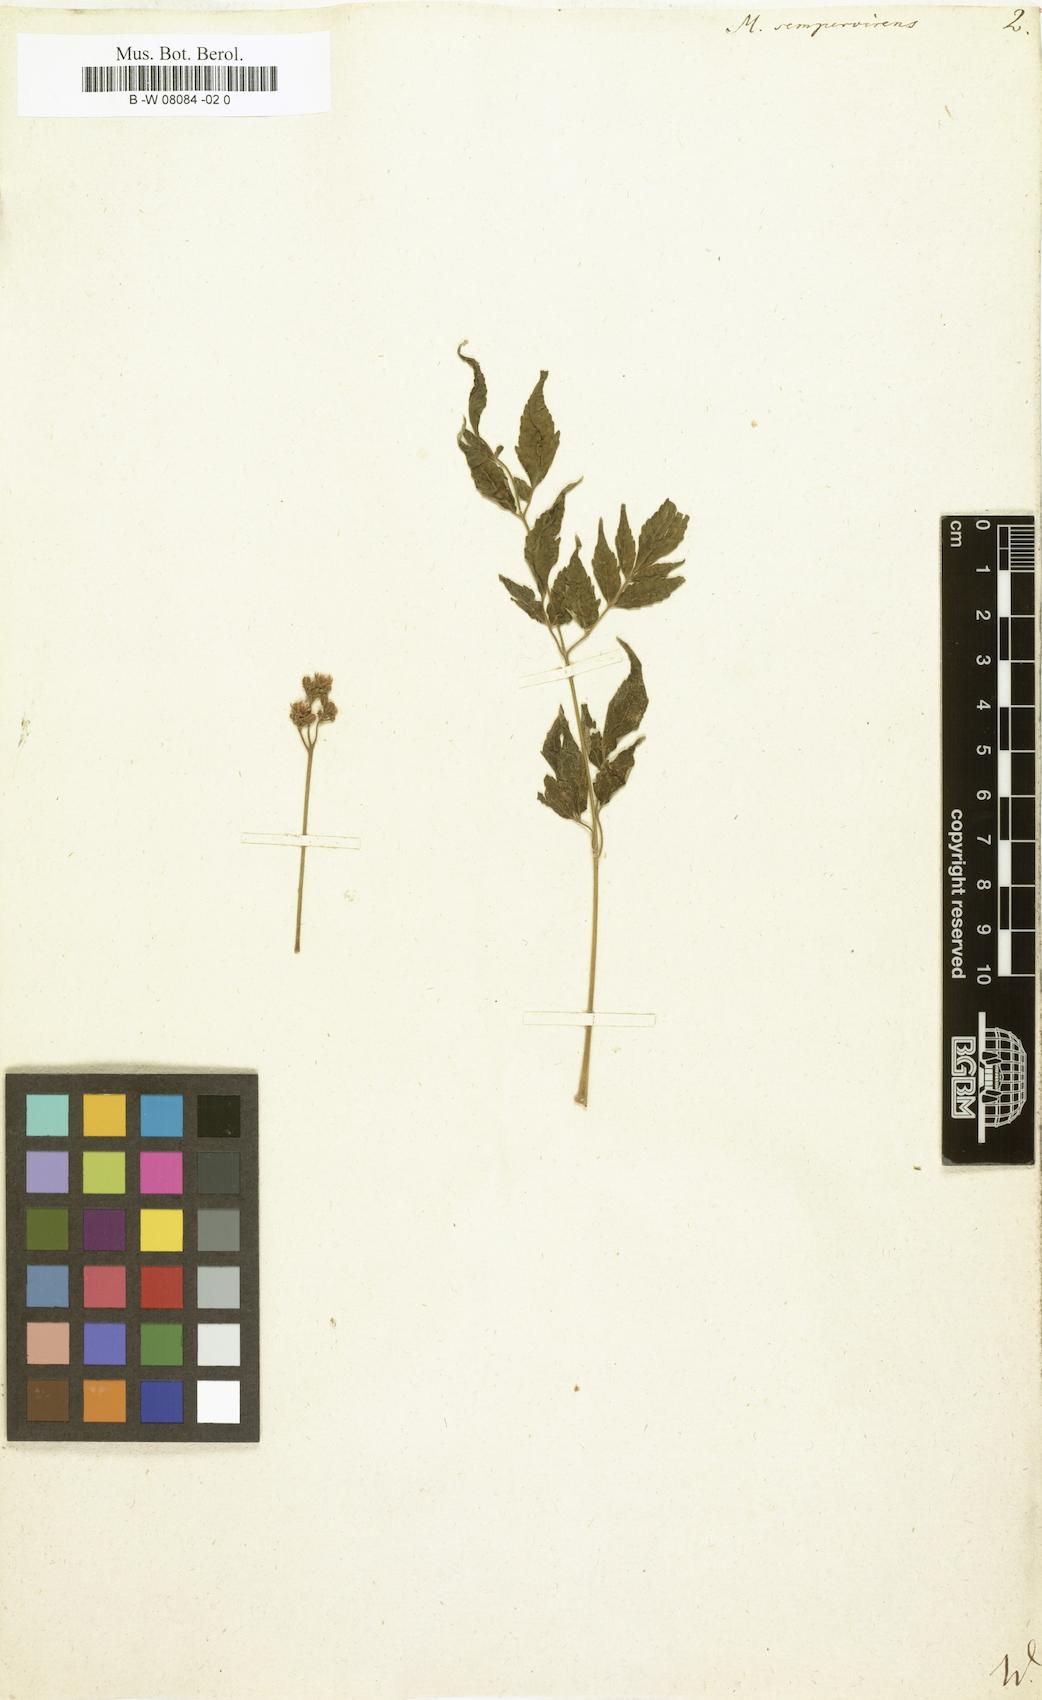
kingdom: Plantae
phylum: Tracheophyta
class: Magnoliopsida
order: Sapindales
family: Meliaceae
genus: Melia
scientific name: Melia azedarach
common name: Chinaberrytree
